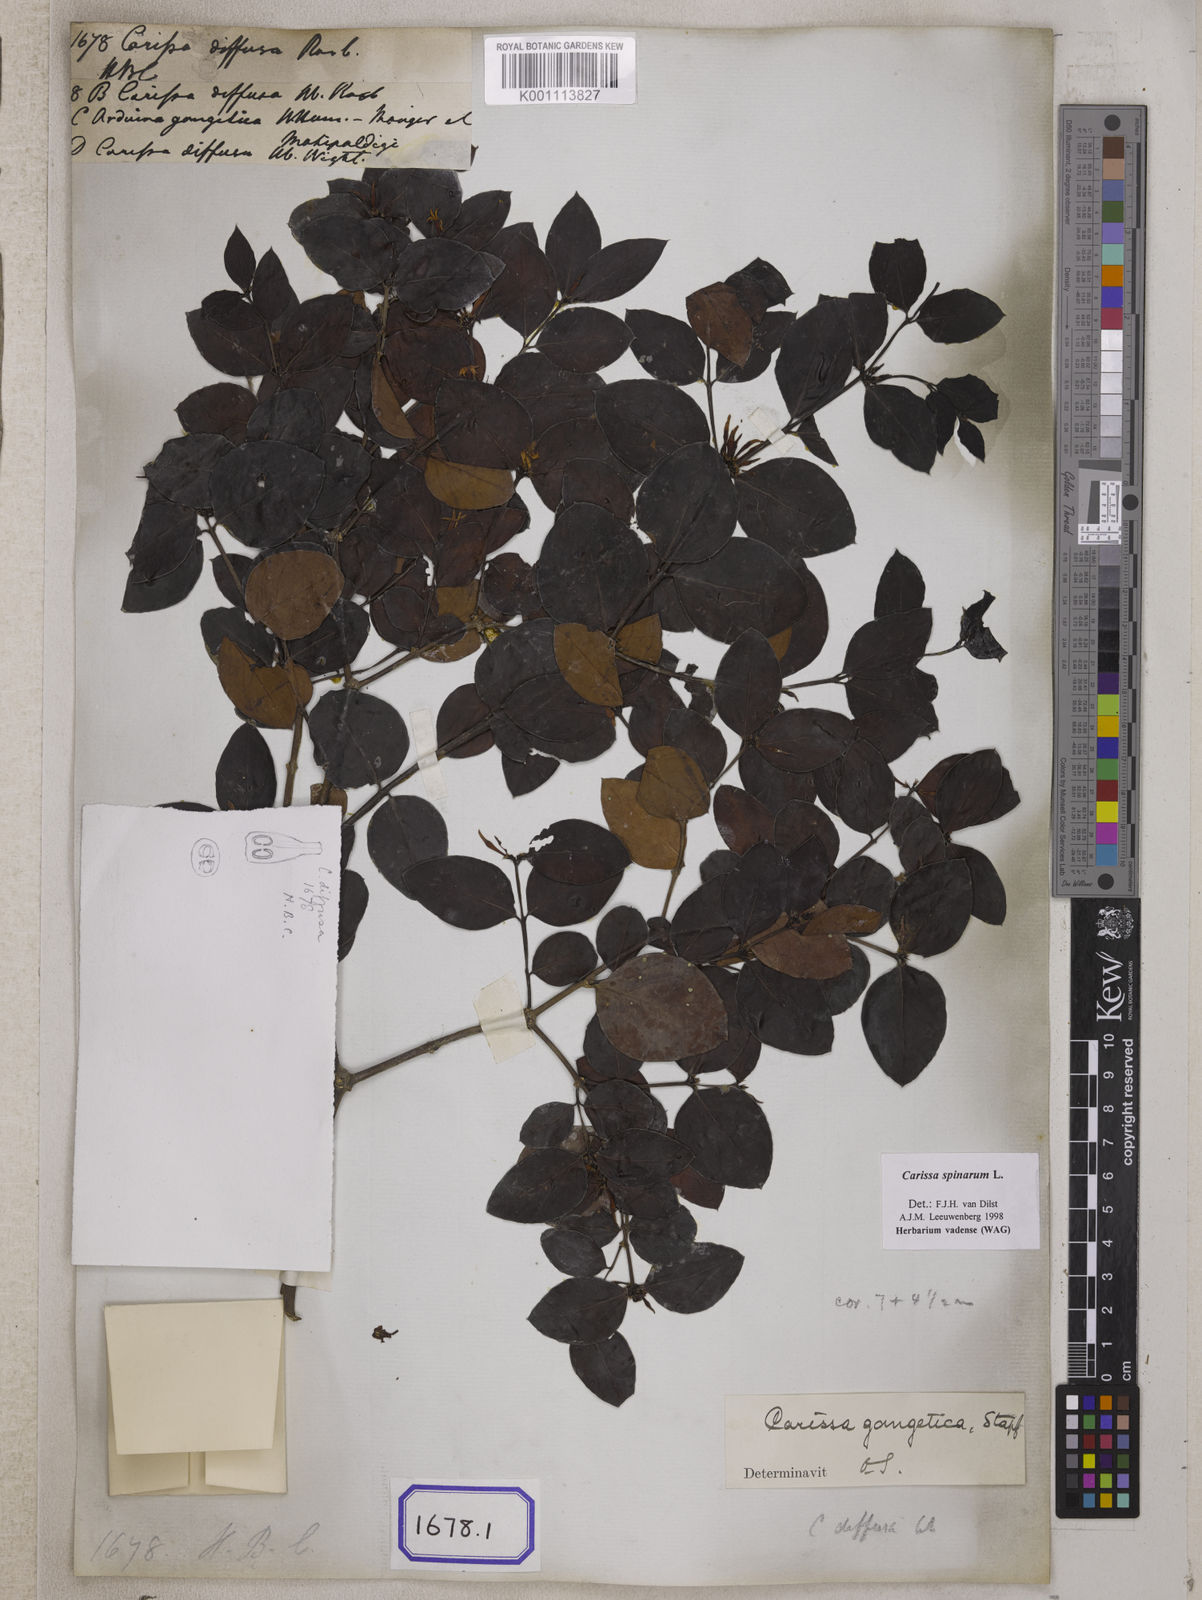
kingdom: Plantae
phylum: Tracheophyta
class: Magnoliopsida
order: Gentianales
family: Apocynaceae
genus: Carissa
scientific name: Carissa spinarum
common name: Egyptian carissa
